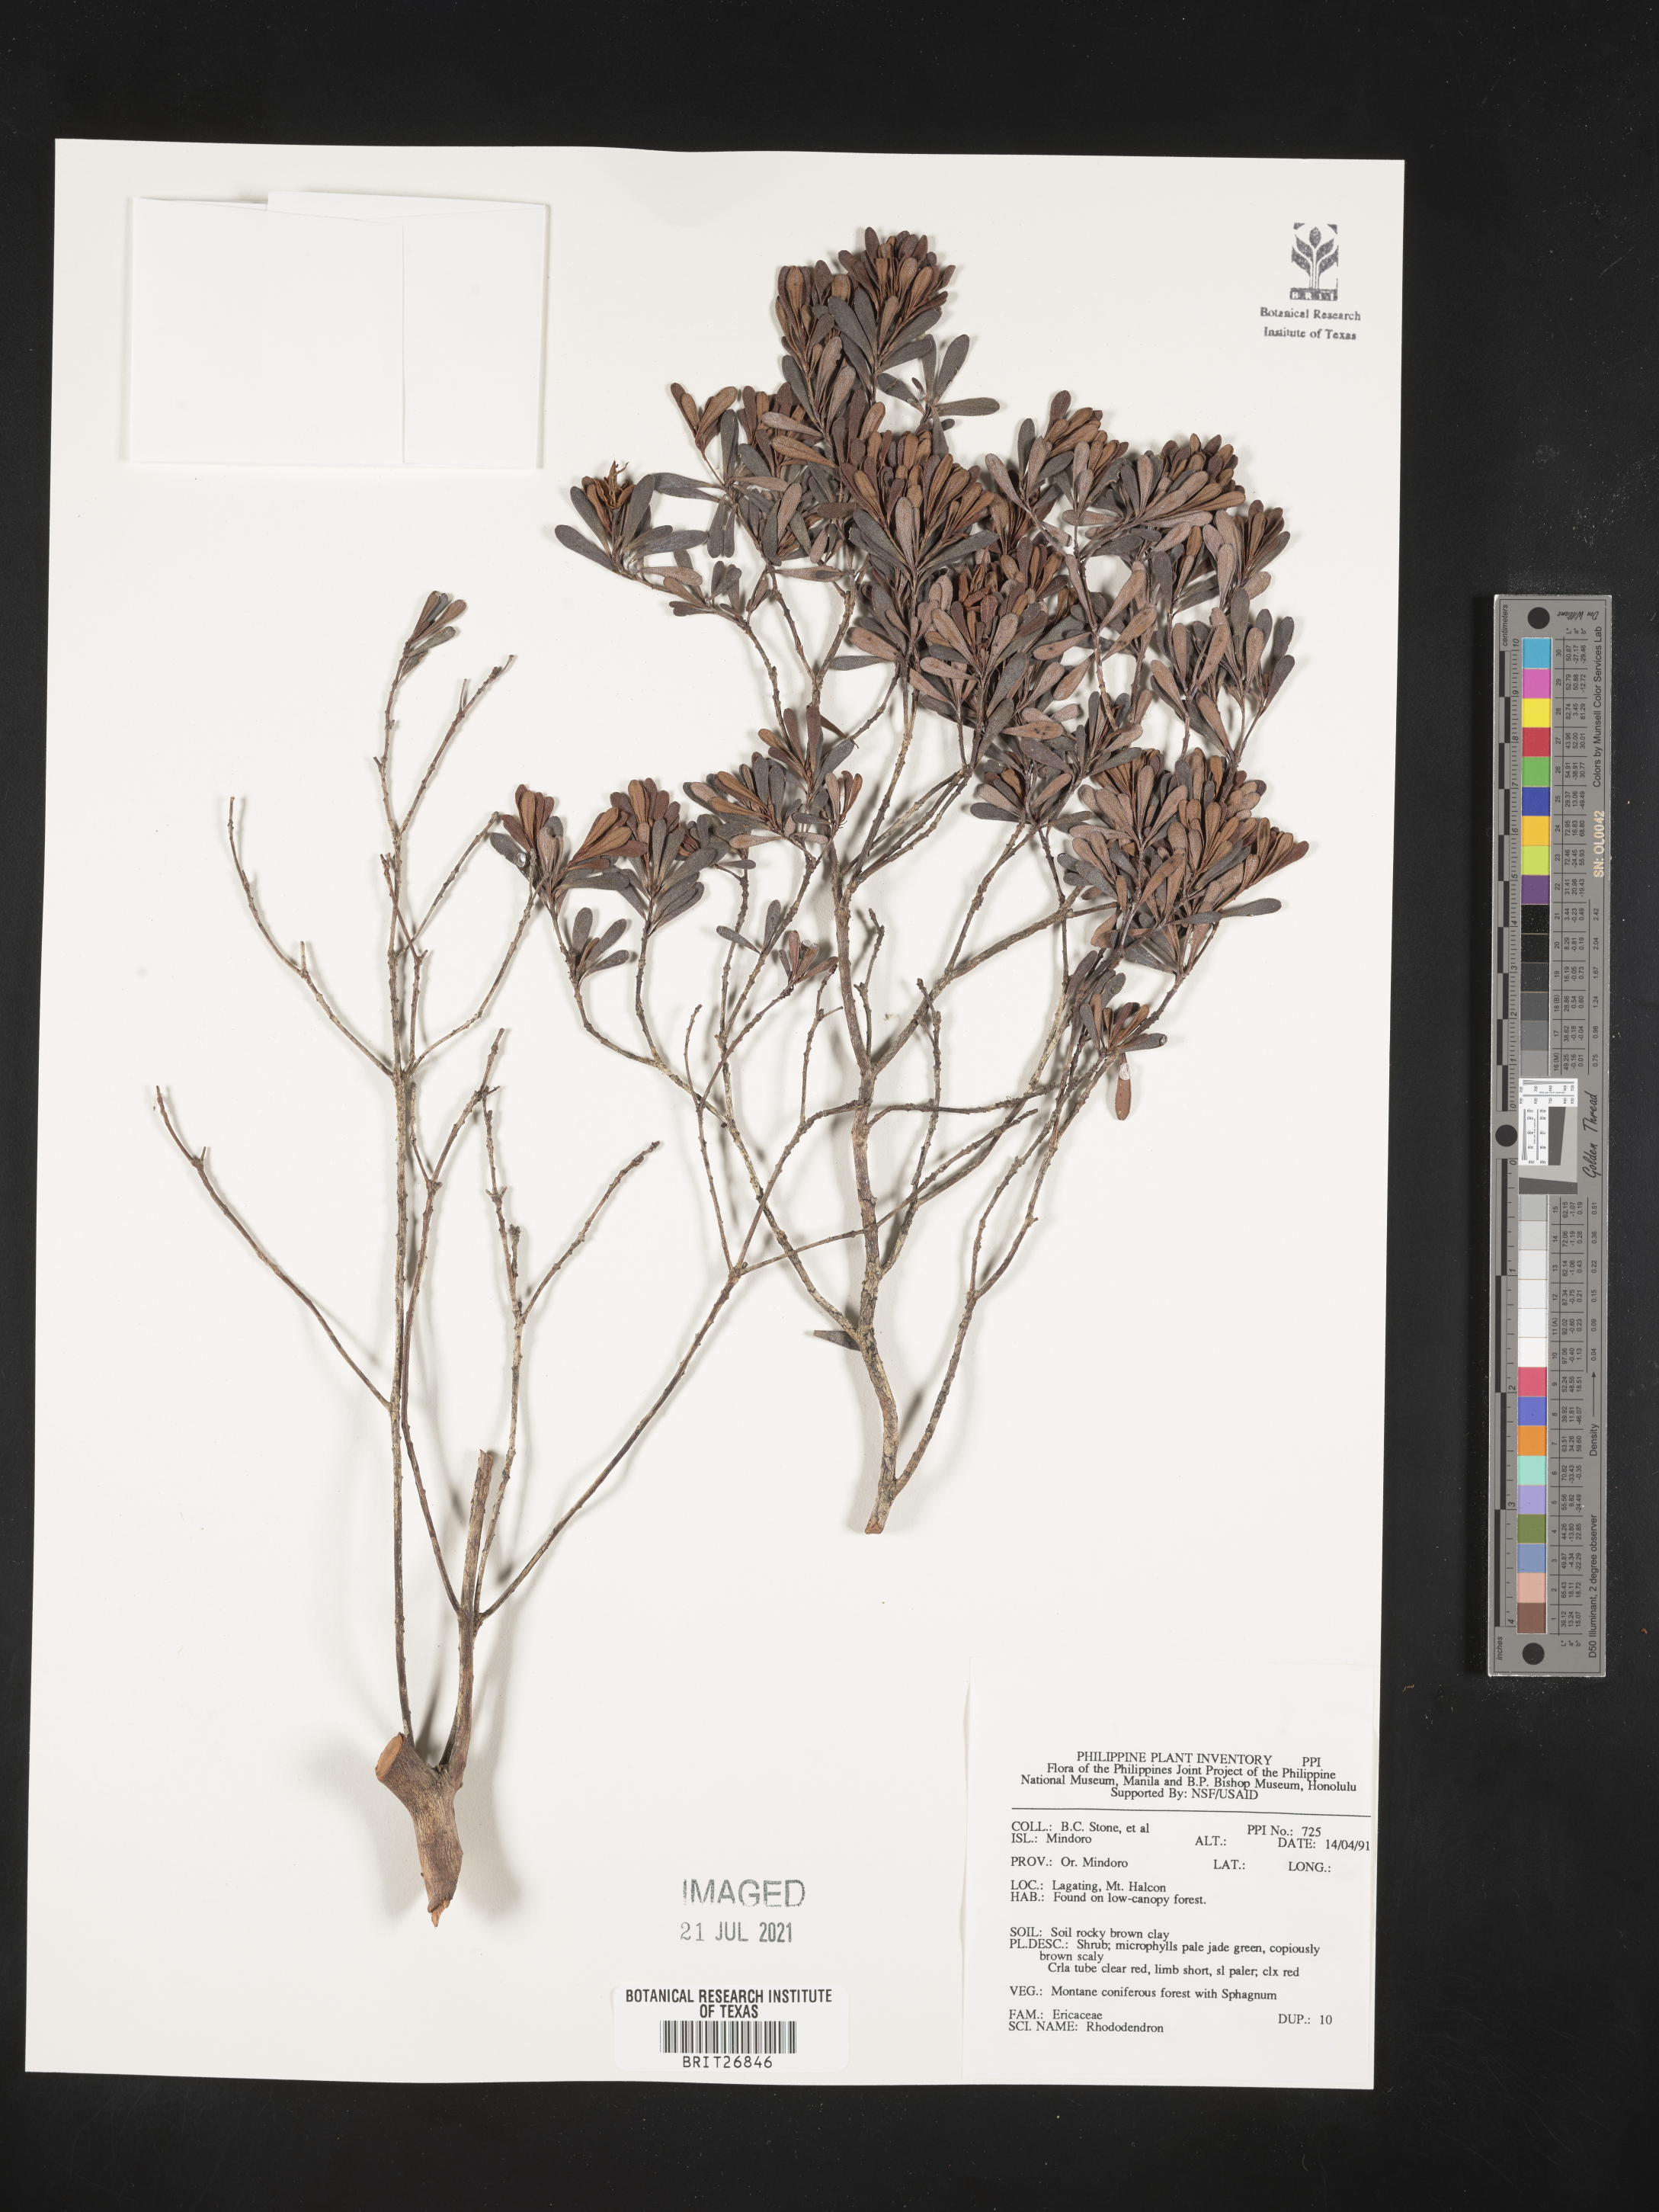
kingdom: Plantae
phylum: Tracheophyta
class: Magnoliopsida
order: Ericales
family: Ericaceae
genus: Rhododendron
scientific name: Rhododendron
